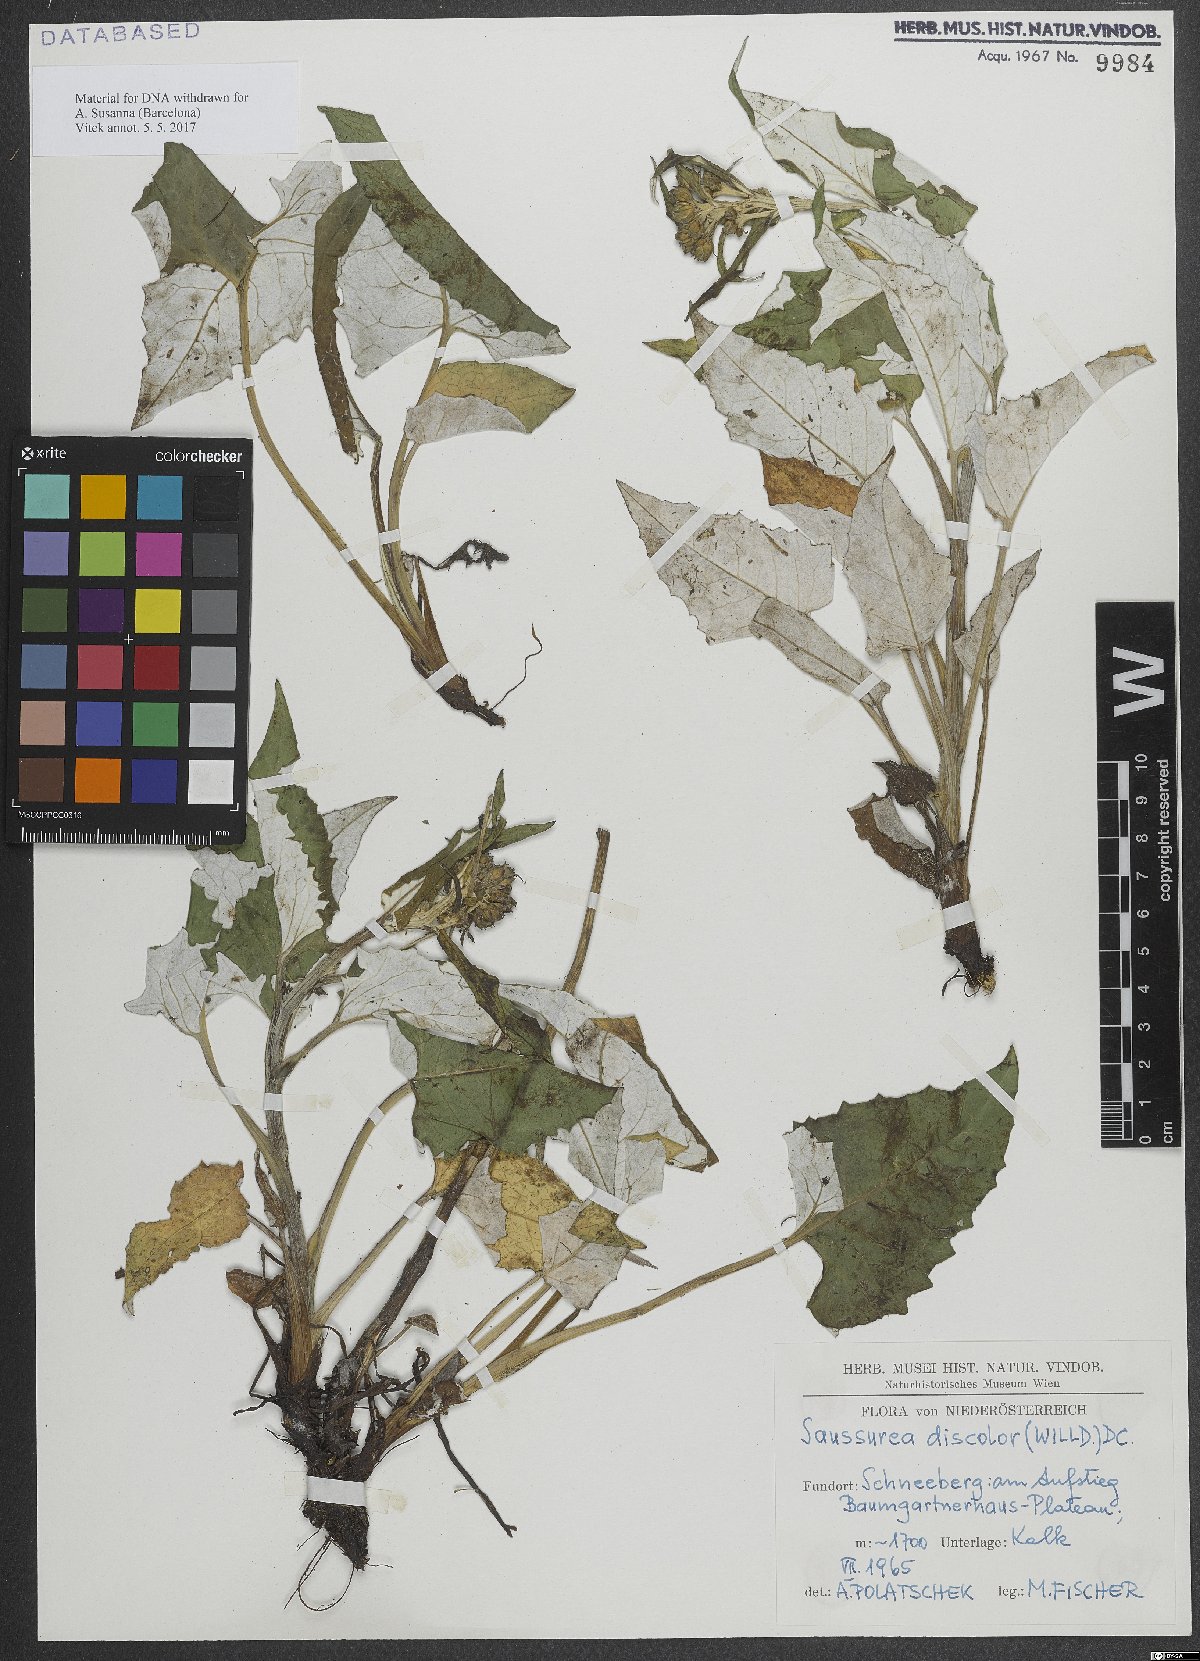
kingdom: Plantae
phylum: Tracheophyta
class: Magnoliopsida
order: Asterales
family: Asteraceae
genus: Saussurea
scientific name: Saussurea discolor
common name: Heart-leaved saussurea
